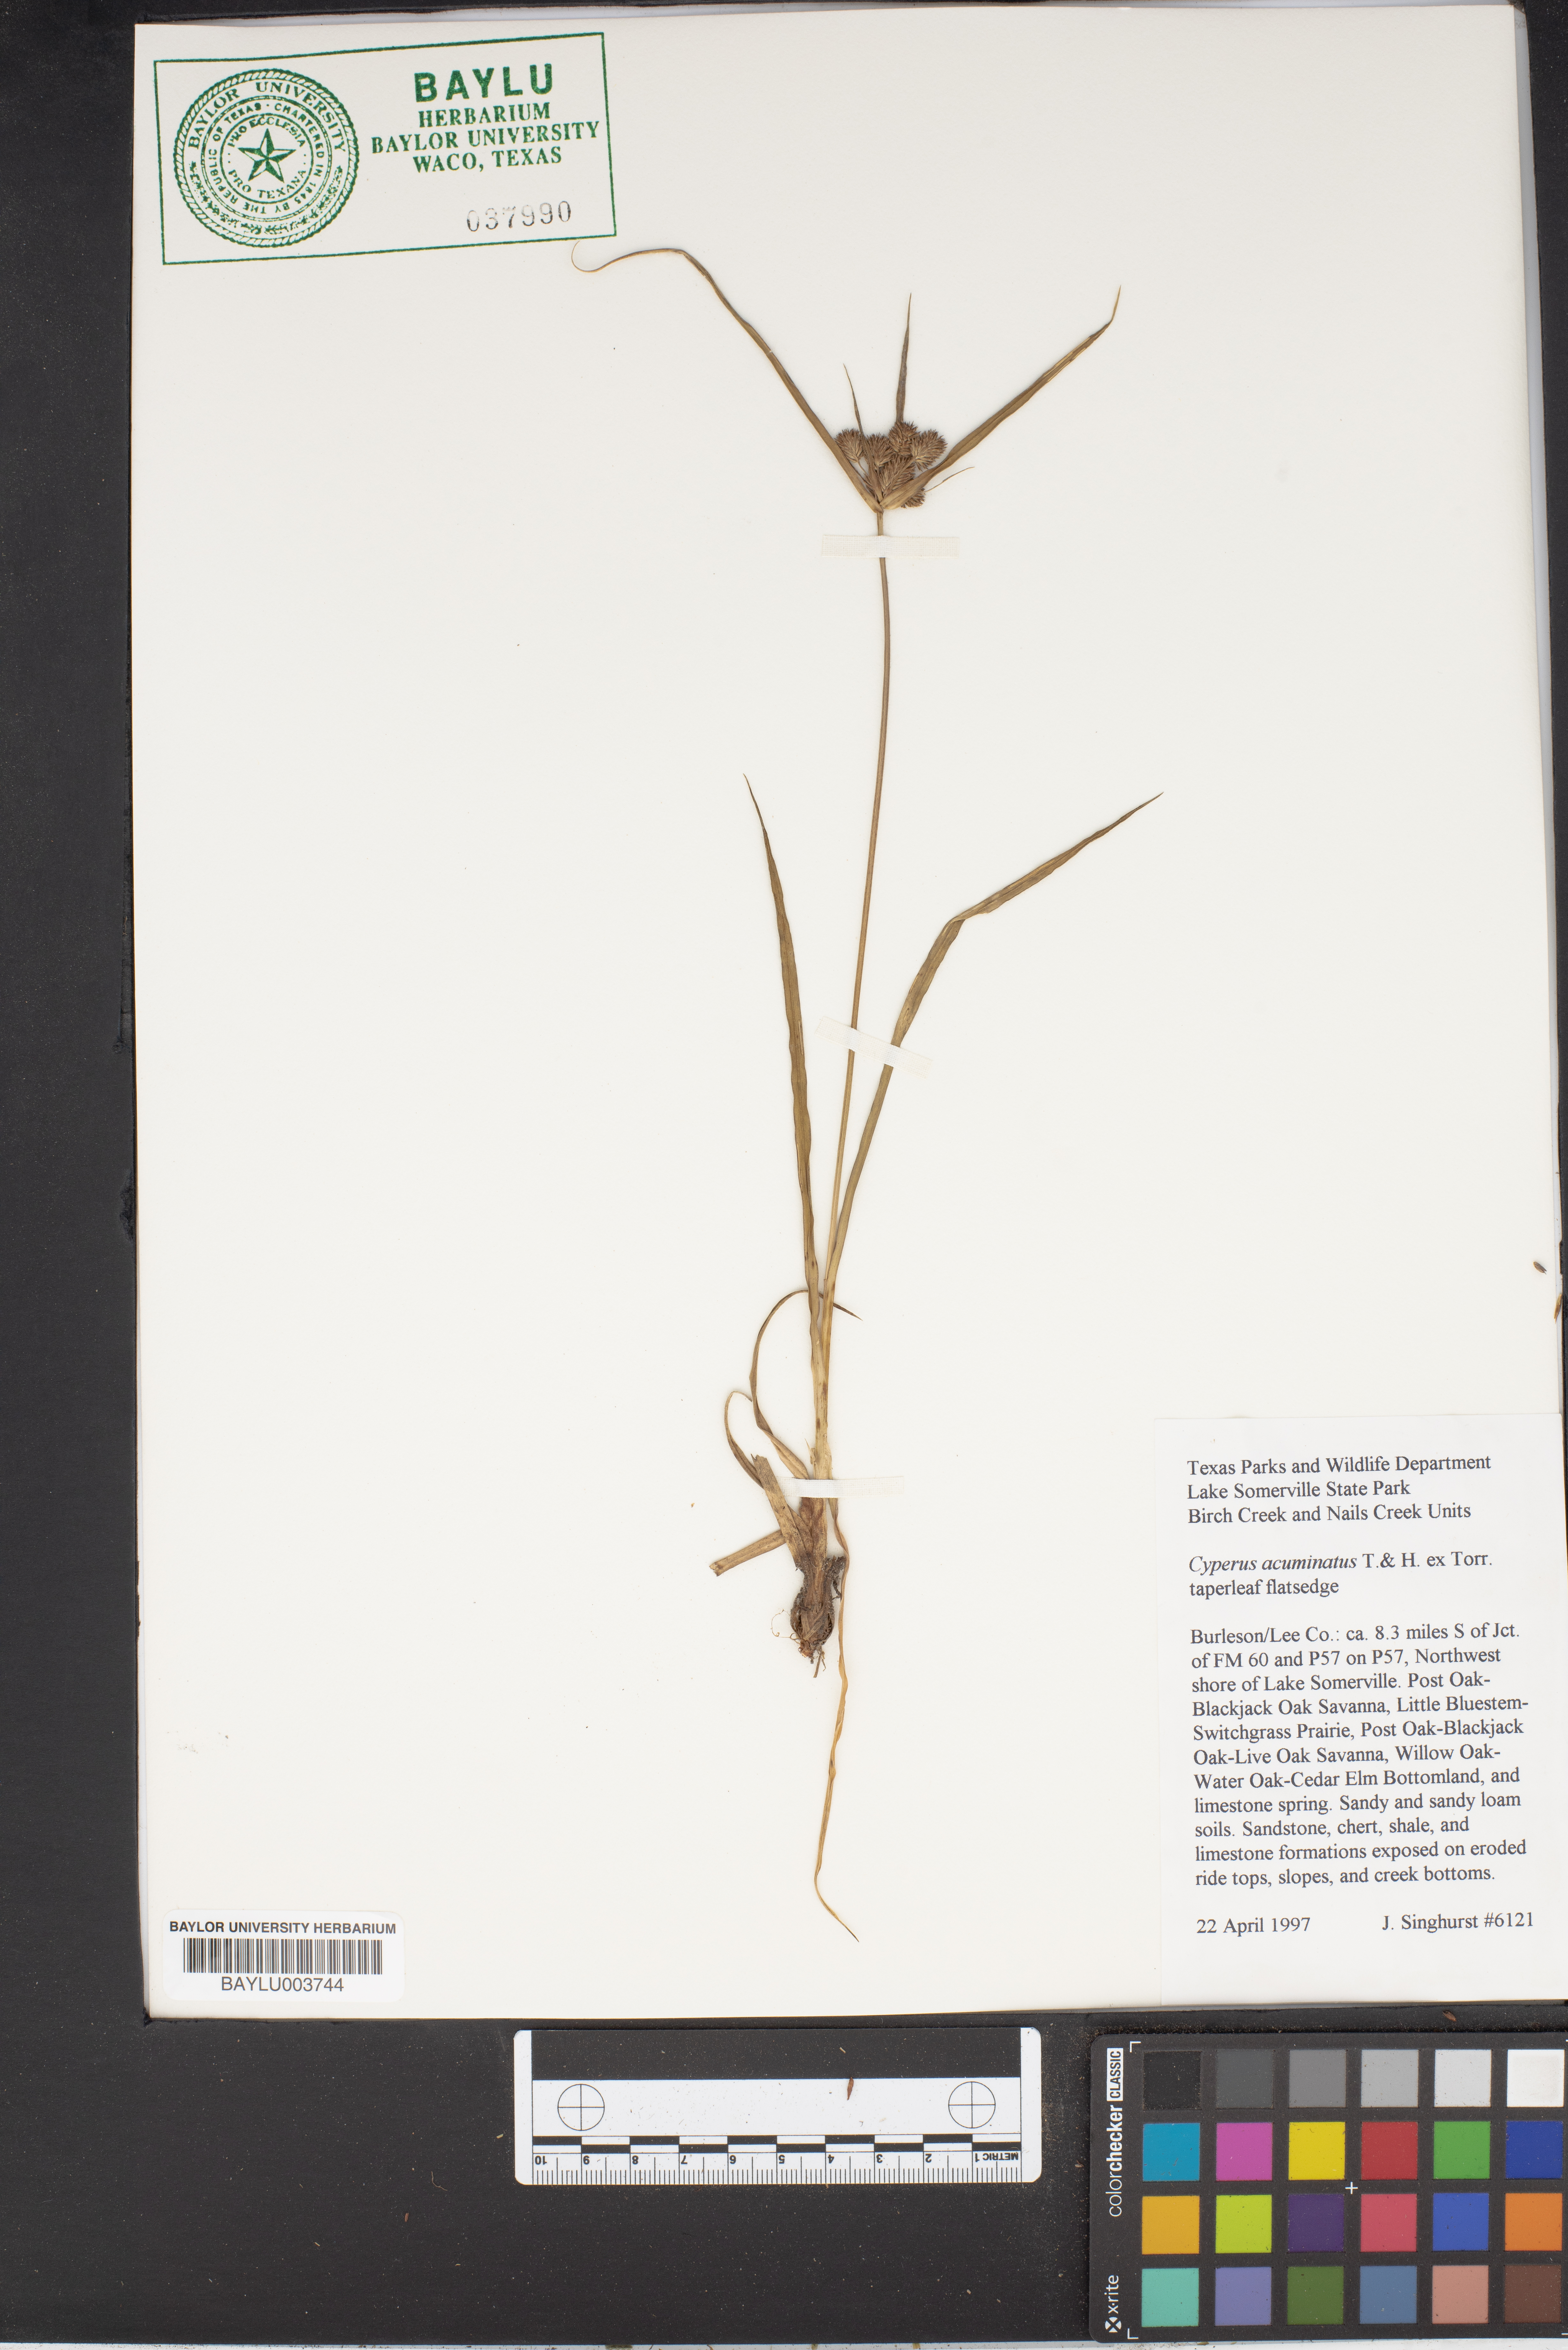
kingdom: Plantae
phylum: Tracheophyta
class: Liliopsida
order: Poales
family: Cyperaceae
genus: Cyperus
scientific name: Cyperus acuminatus
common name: Short-pointed cyperus
